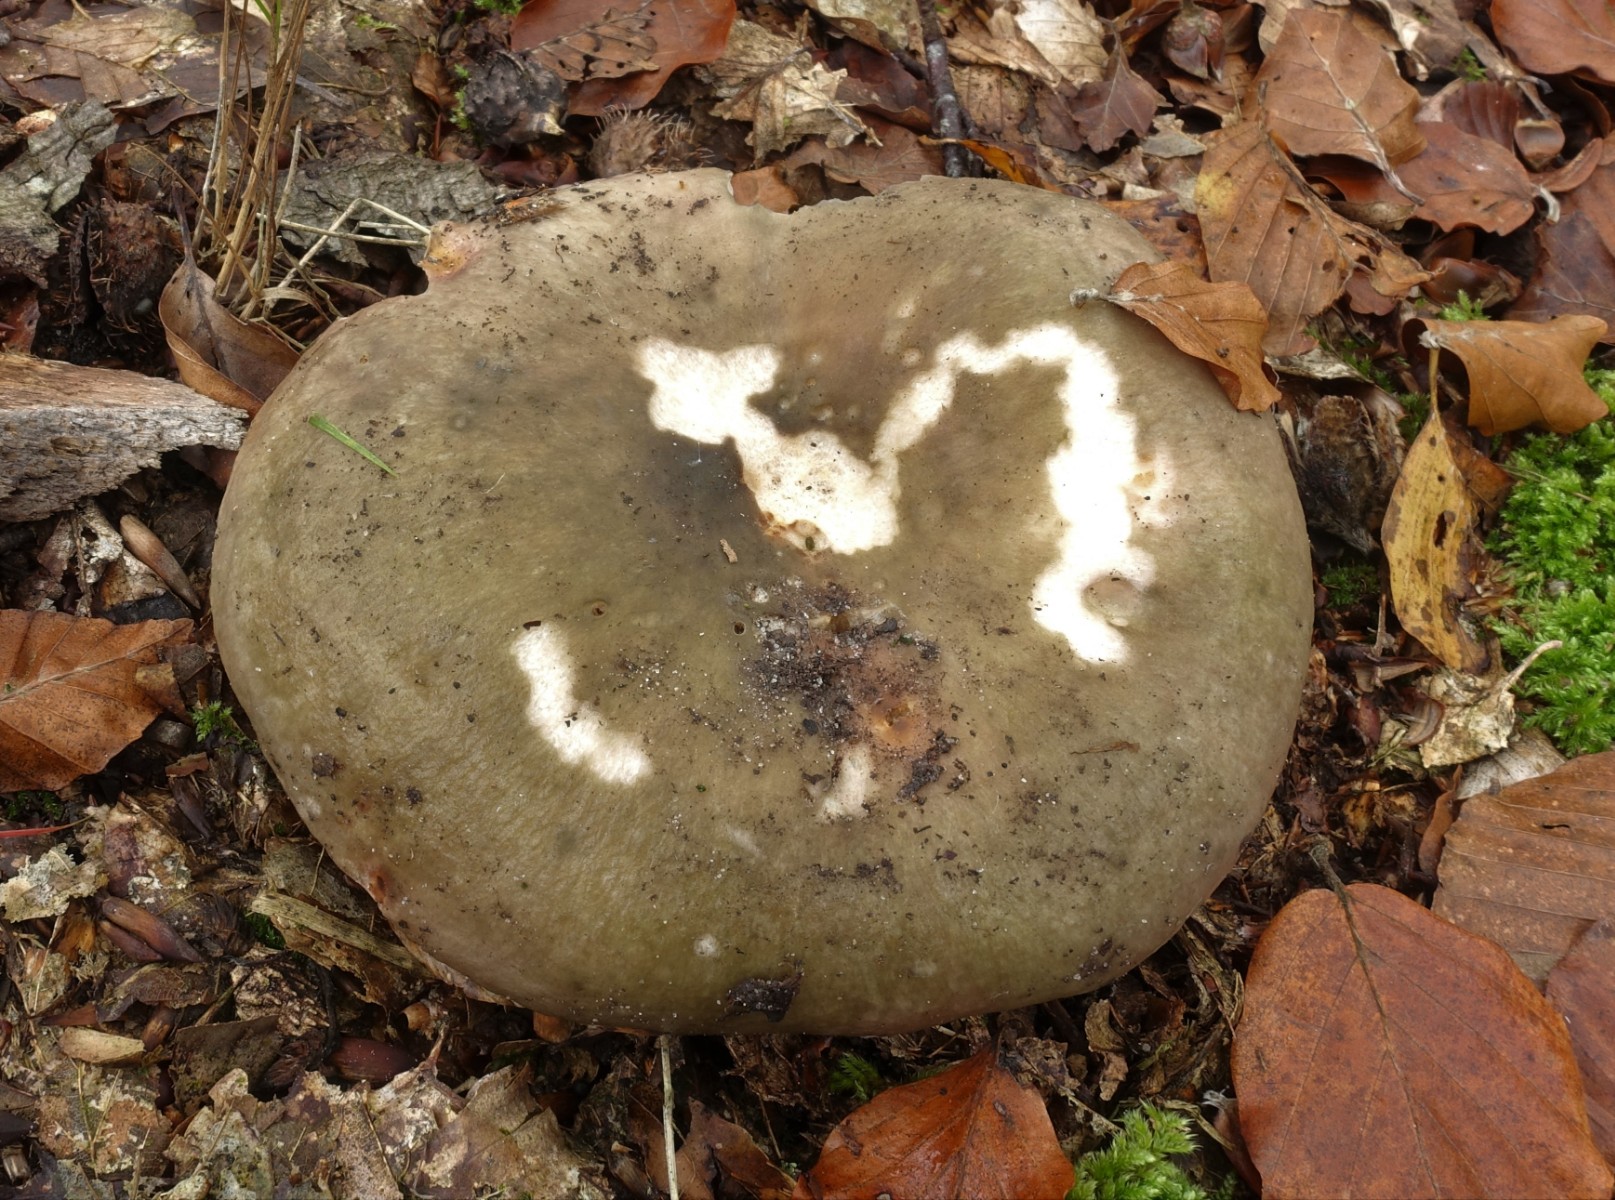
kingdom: Fungi
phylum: Basidiomycota
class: Agaricomycetes
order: Russulales
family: Russulaceae
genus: Russula
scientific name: Russula heterophylla
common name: gaffelbladet skørhat
